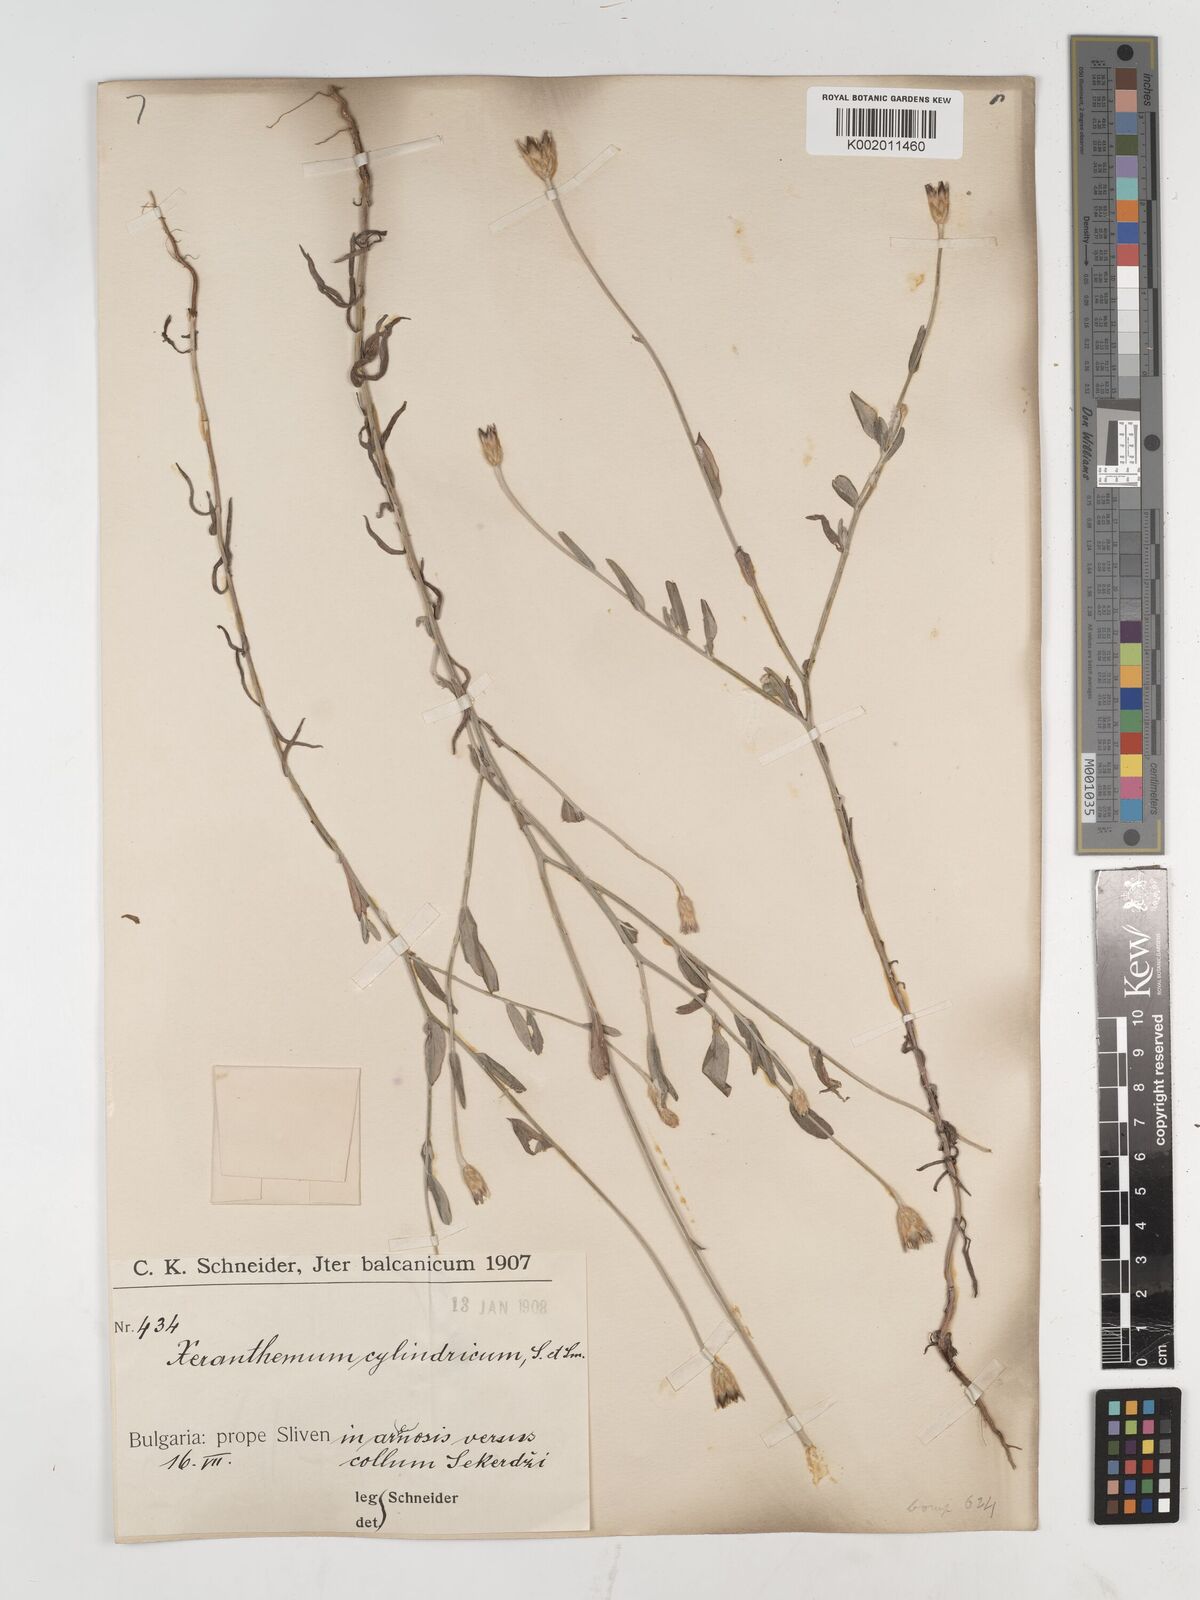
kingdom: Plantae
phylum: Tracheophyta
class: Magnoliopsida
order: Asterales
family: Asteraceae
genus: Xeranthemum
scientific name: Xeranthemum cylindraceum
